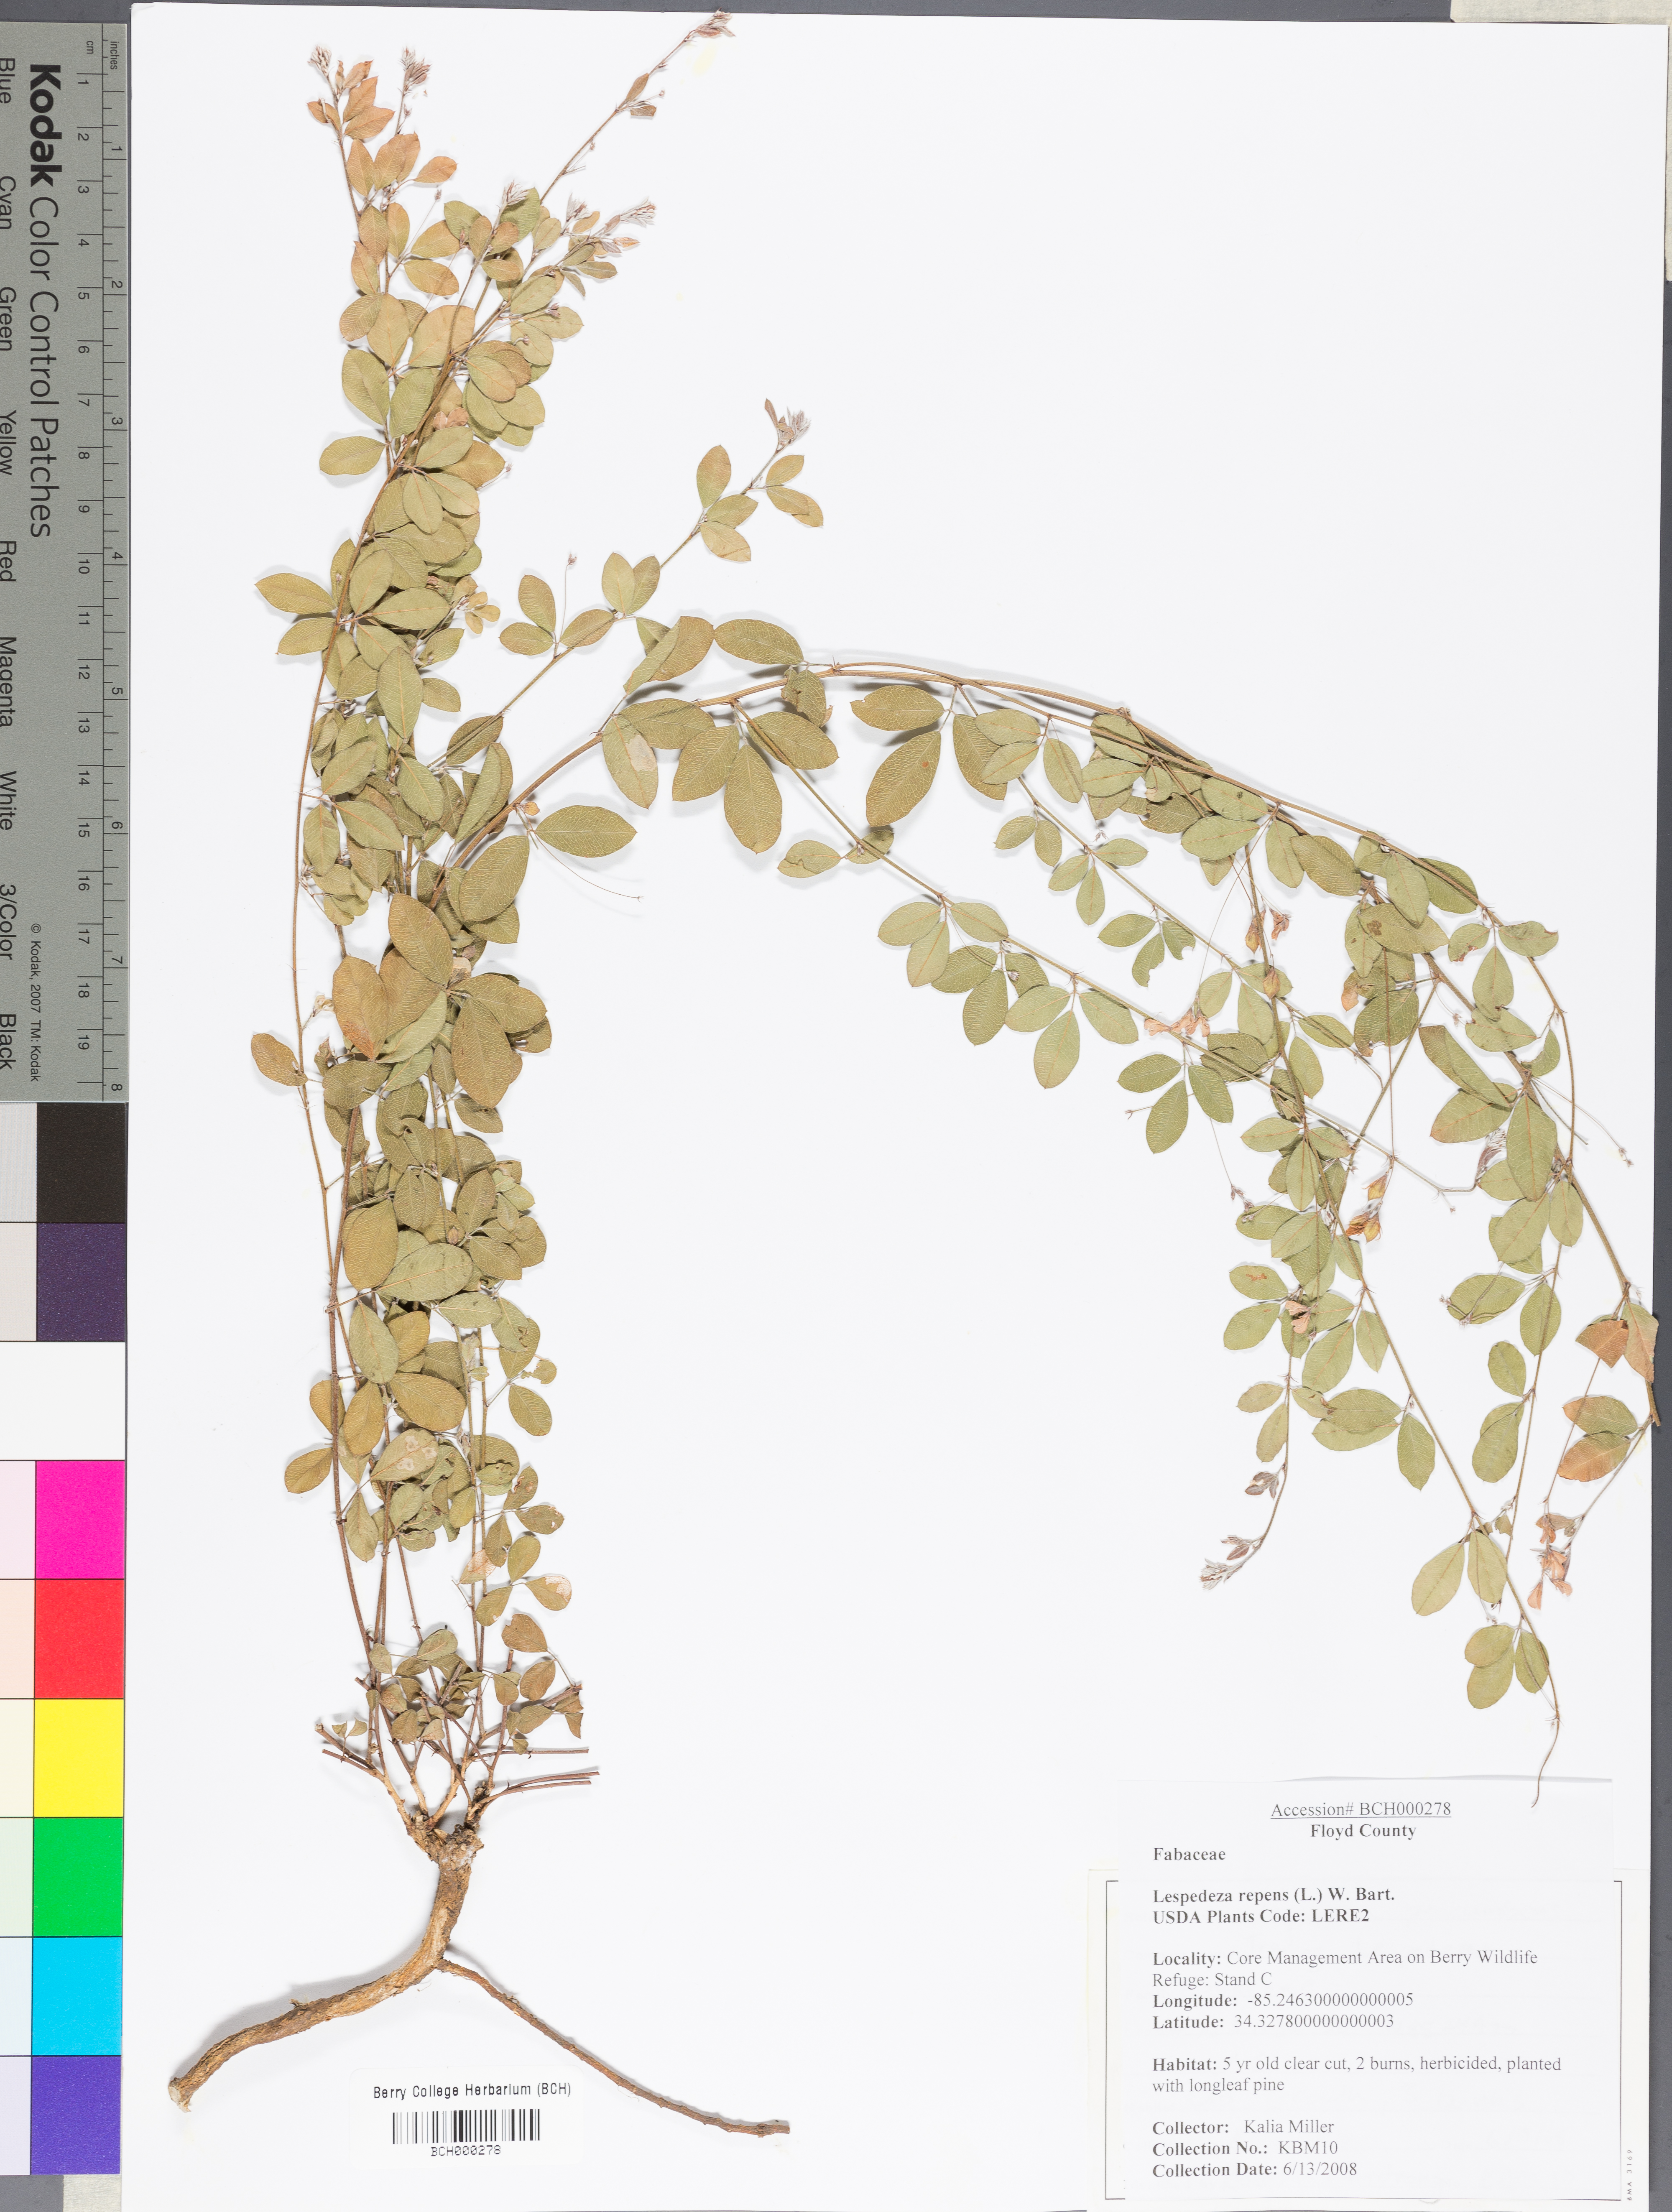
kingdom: Plantae
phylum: Tracheophyta
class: Magnoliopsida
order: Fabales
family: Fabaceae
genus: Lespedeza
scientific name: Lespedeza repens
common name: Creeping bush-clover
